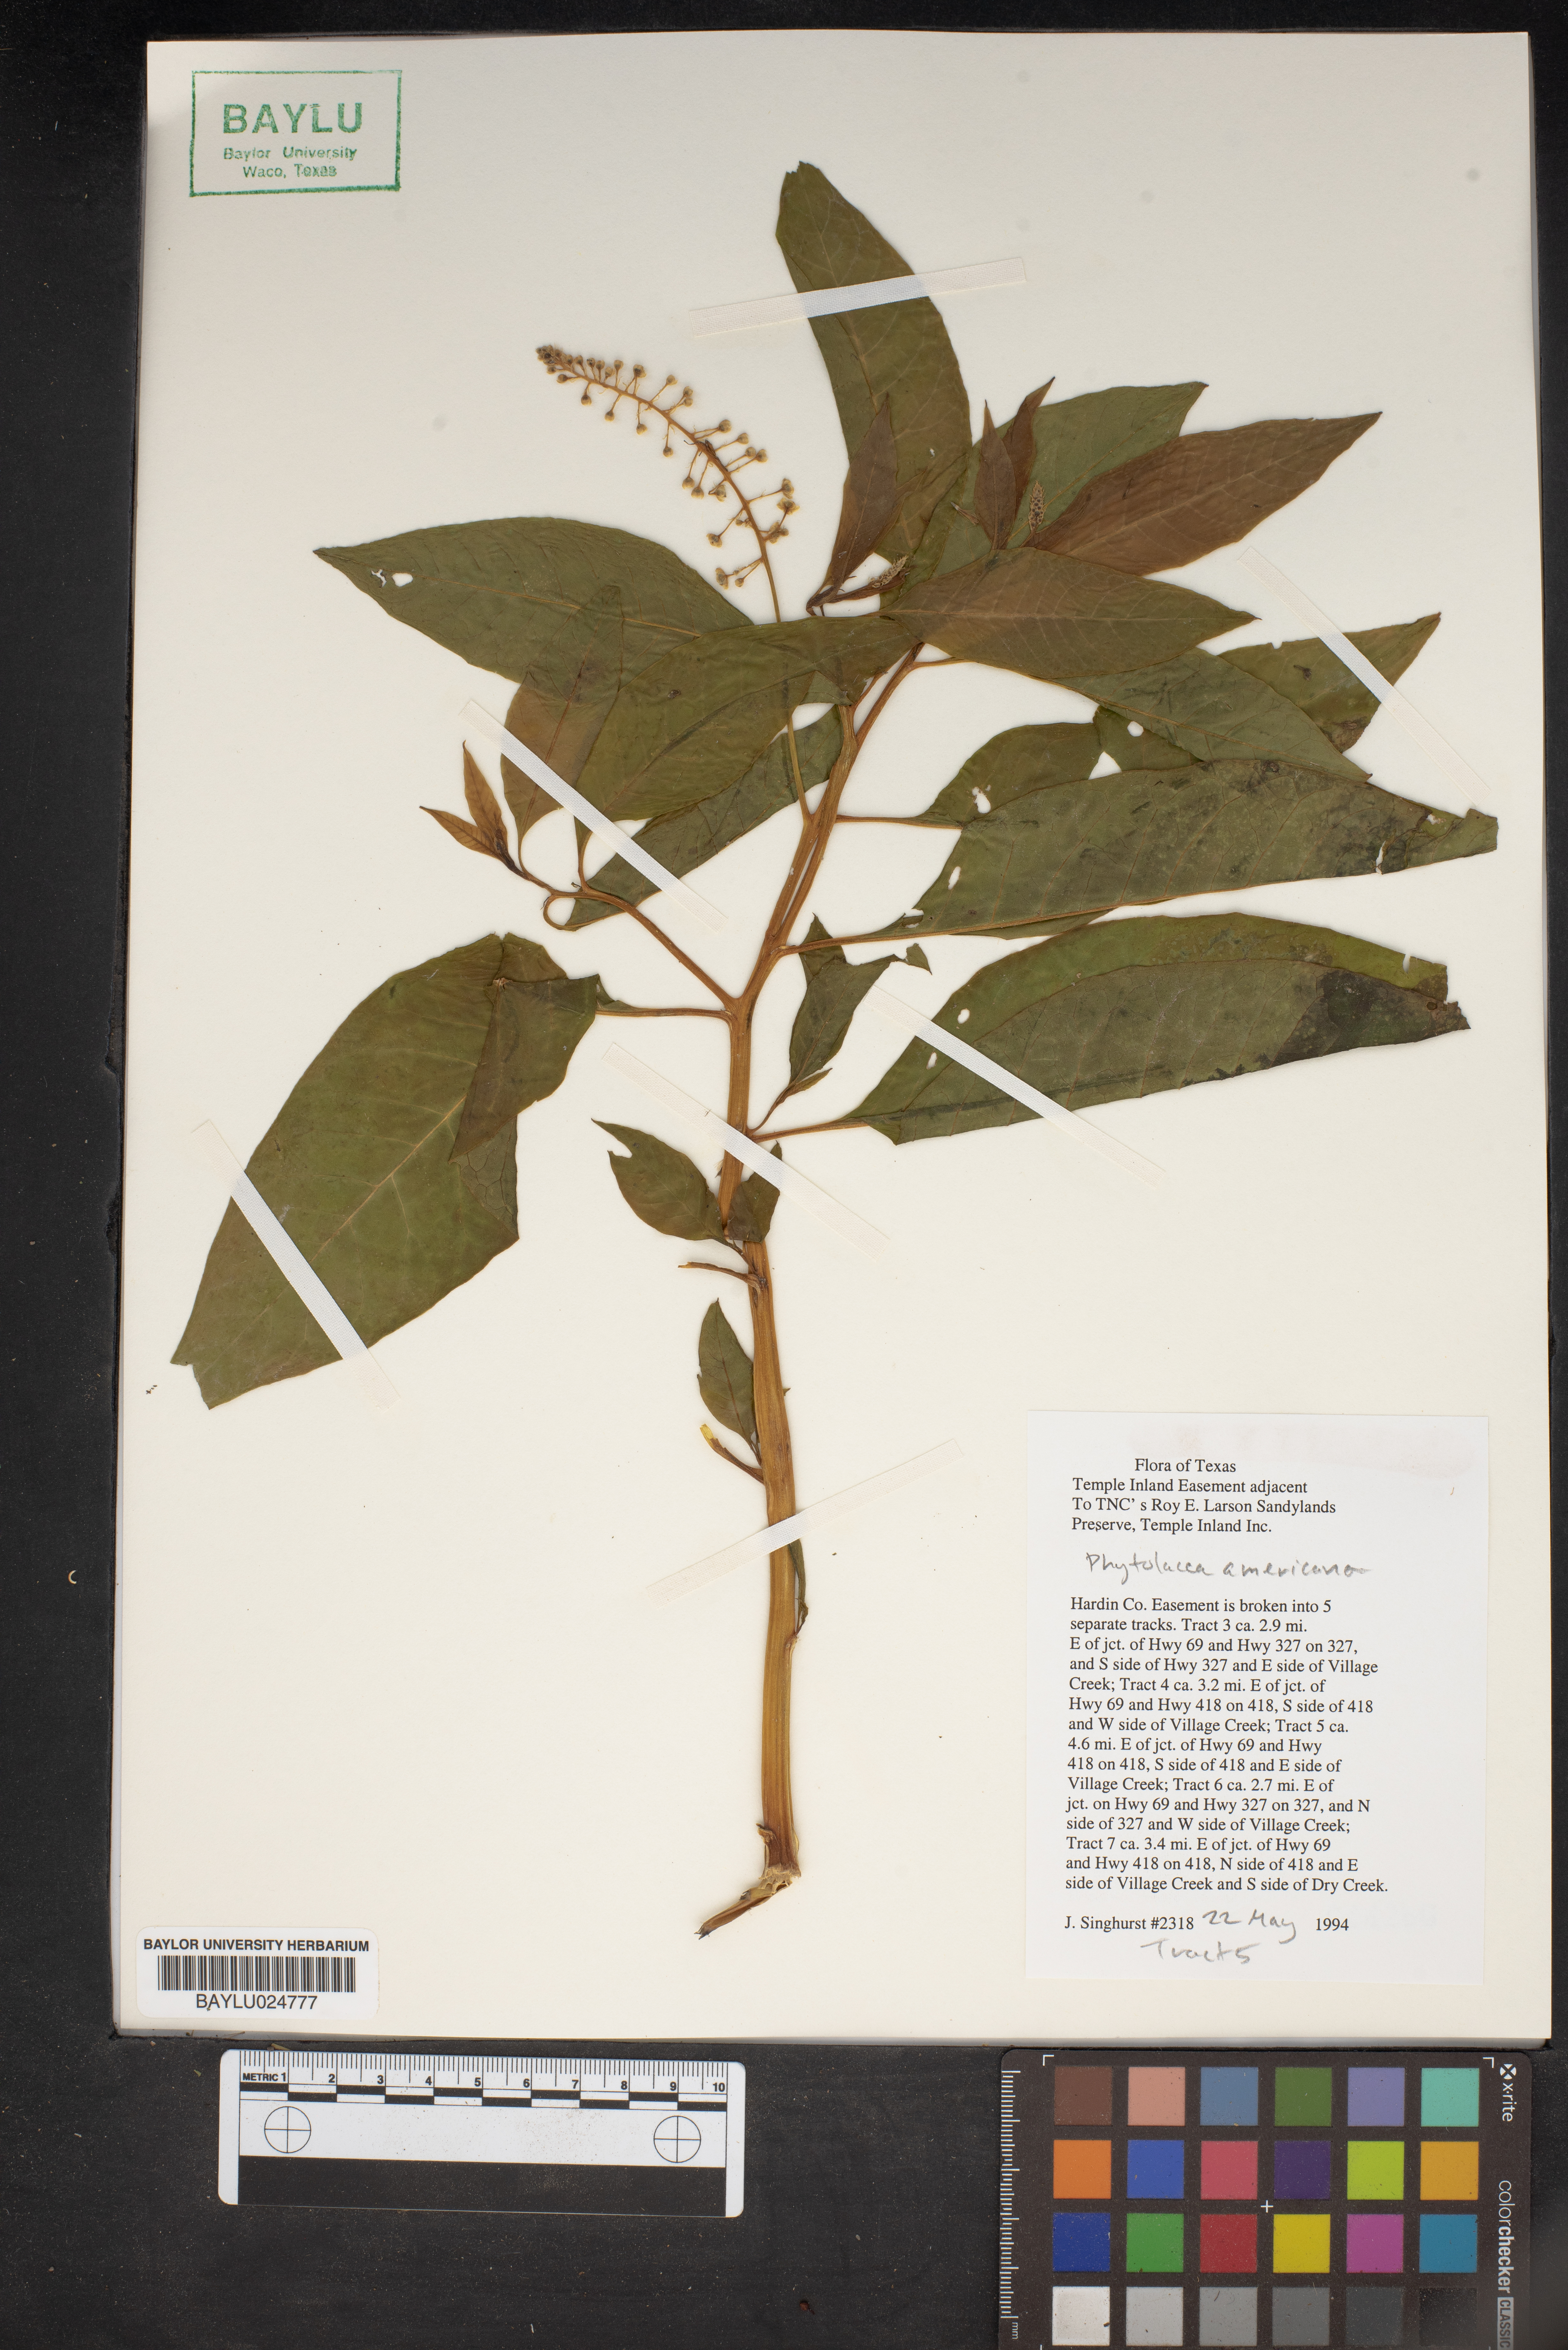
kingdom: Plantae
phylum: Tracheophyta
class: Magnoliopsida
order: Caryophyllales
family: Phytolaccaceae
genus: Phytolacca
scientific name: Phytolacca americana
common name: American pokeweed
